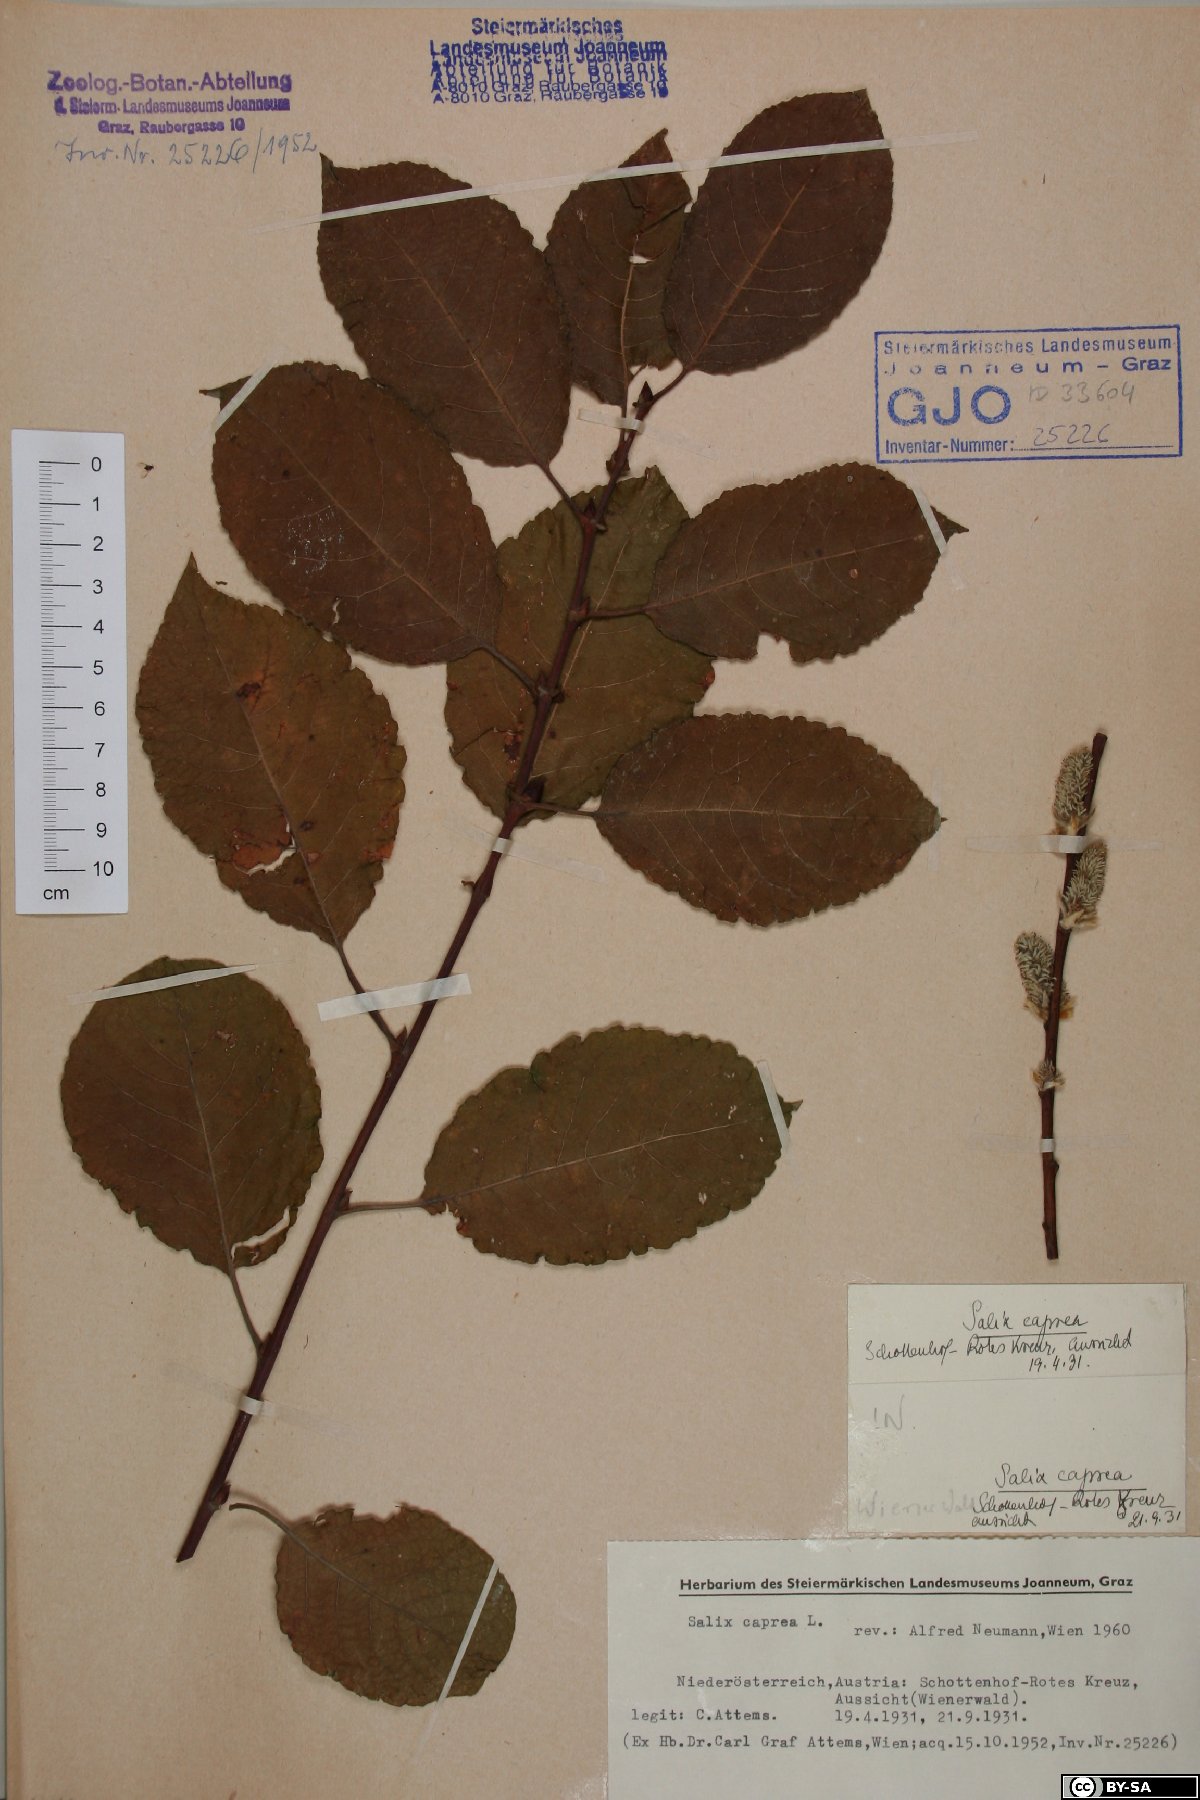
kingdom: Plantae
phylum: Tracheophyta
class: Magnoliopsida
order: Malpighiales
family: Salicaceae
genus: Salix
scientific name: Salix caprea
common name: Goat willow
